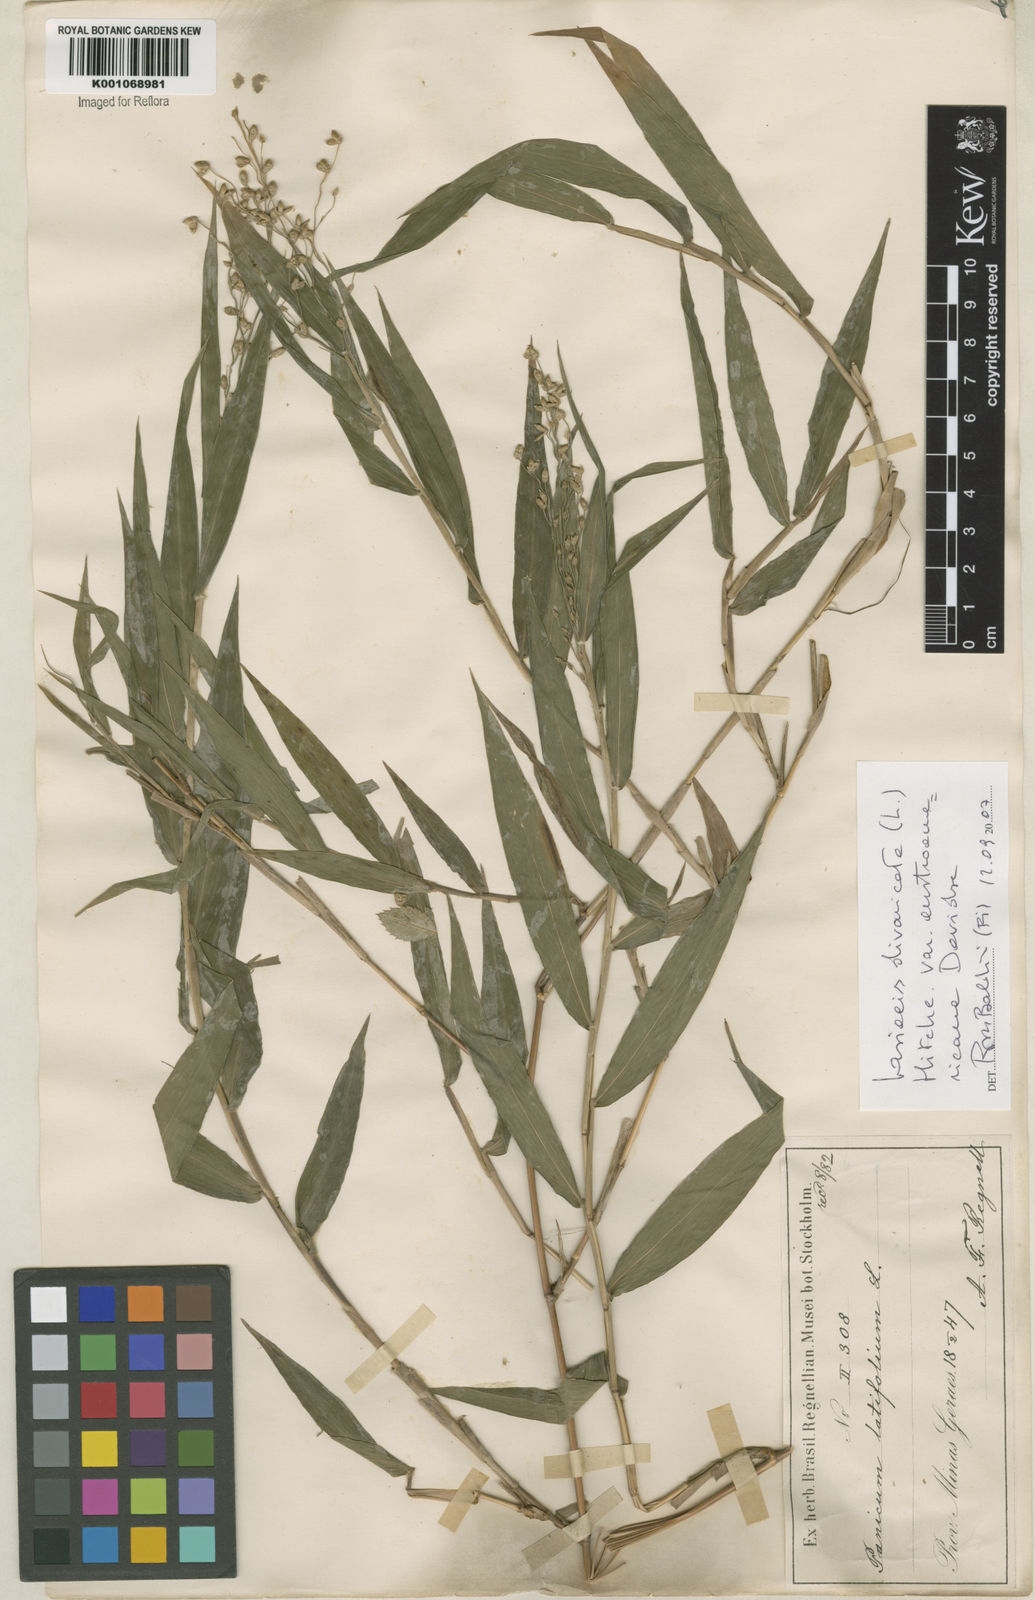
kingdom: Plantae
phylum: Tracheophyta
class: Liliopsida
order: Poales
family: Poaceae
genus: Lasiacis
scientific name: Lasiacis divaricata
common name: Smallcane
